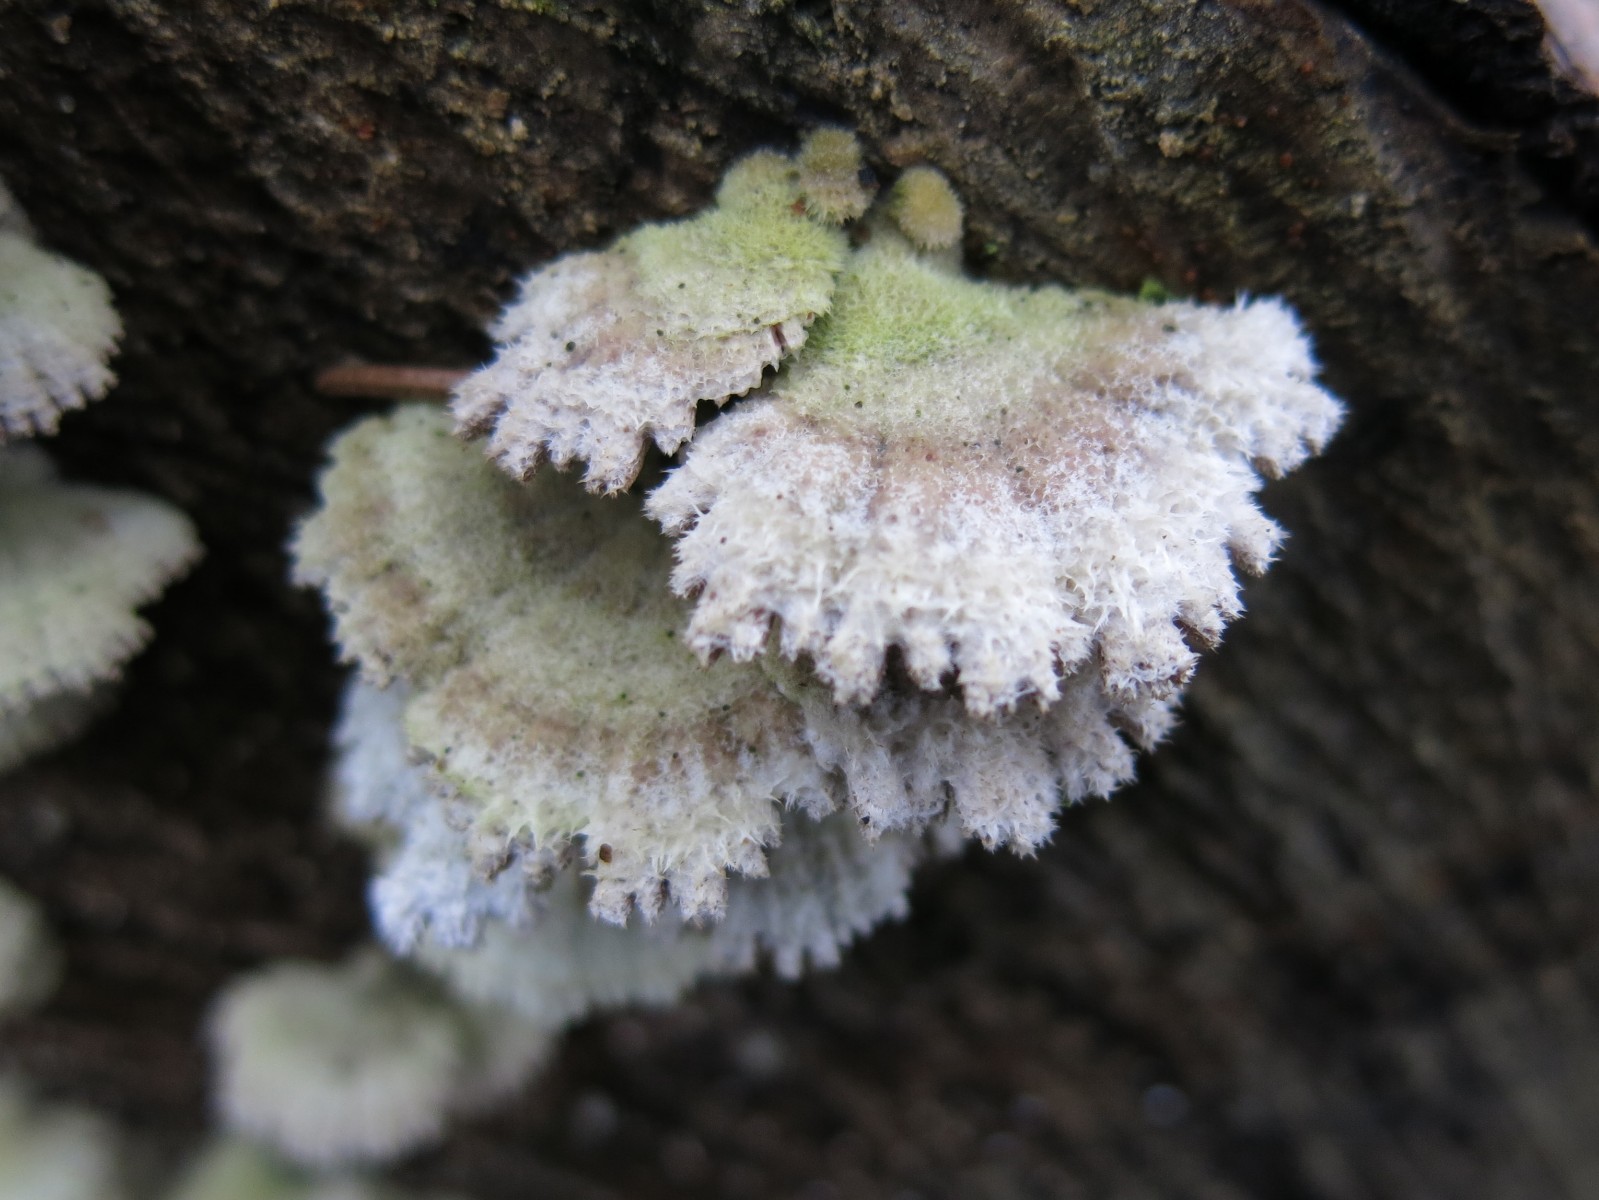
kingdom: Fungi
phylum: Basidiomycota
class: Agaricomycetes
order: Agaricales
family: Schizophyllaceae
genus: Schizophyllum
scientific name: Schizophyllum commune
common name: kløvblad
